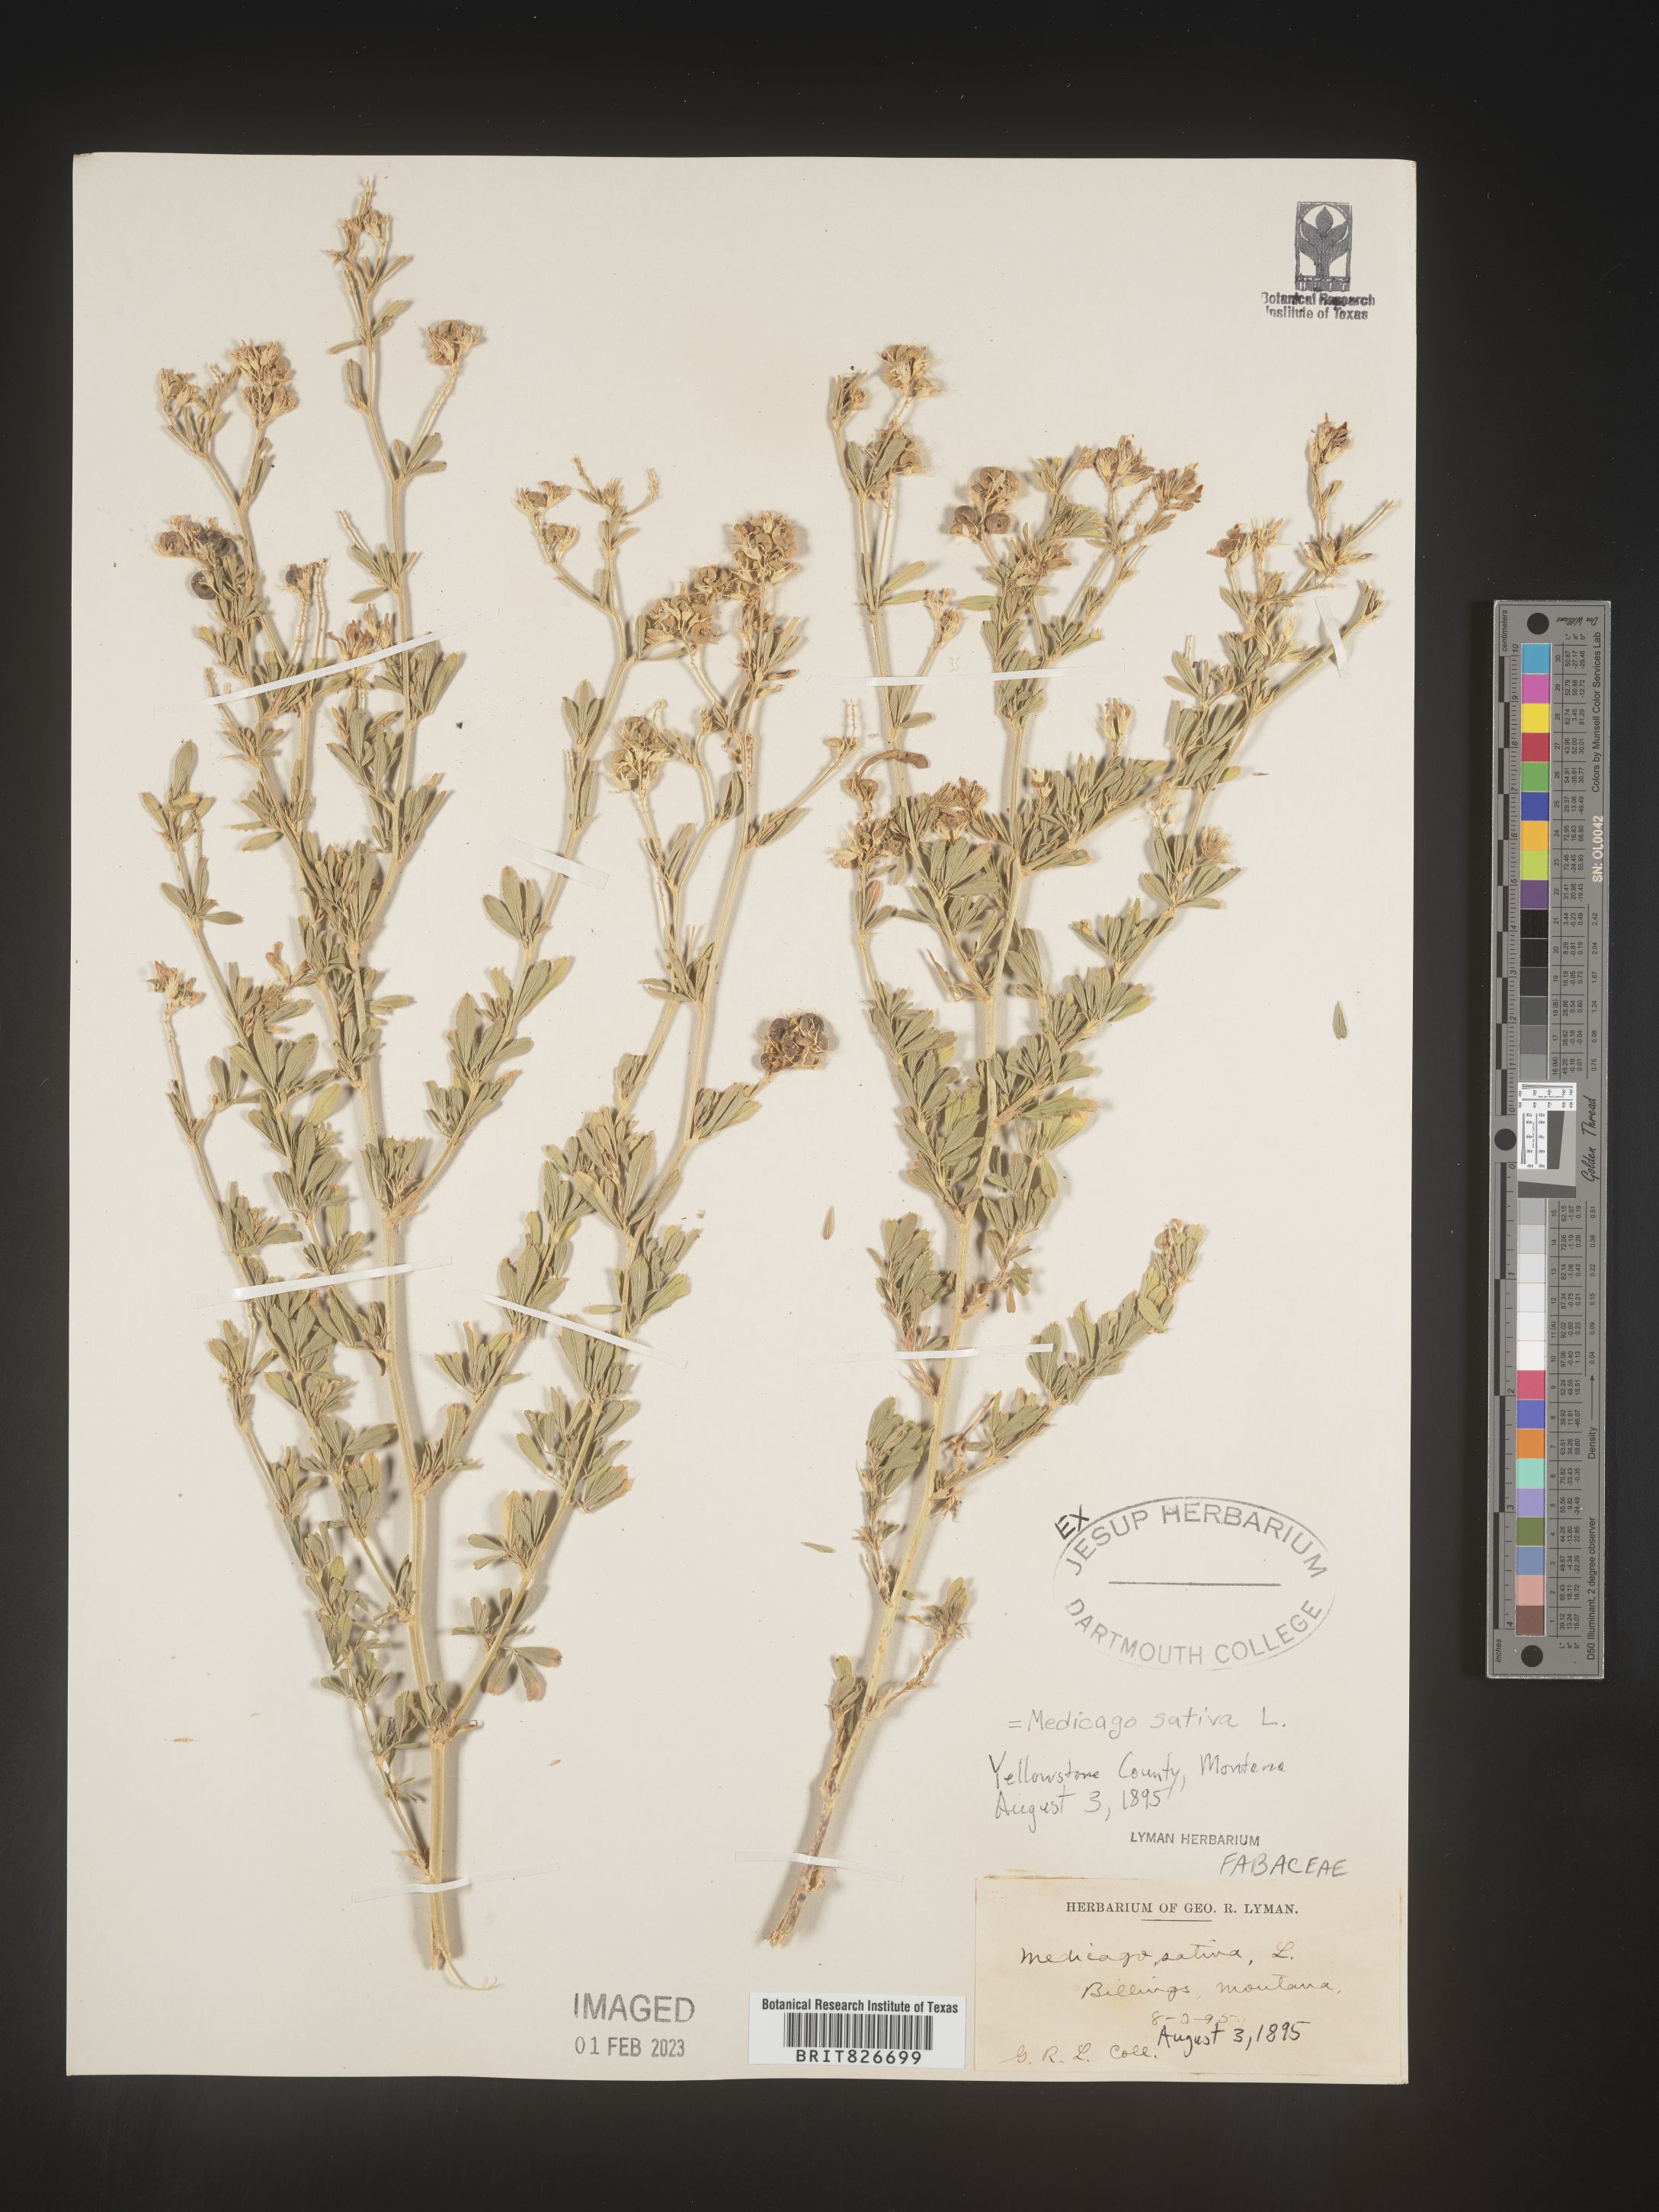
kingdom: Plantae
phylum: Tracheophyta
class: Magnoliopsida
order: Fabales
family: Fabaceae
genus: Medicago
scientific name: Medicago sativa
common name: Alfalfa
